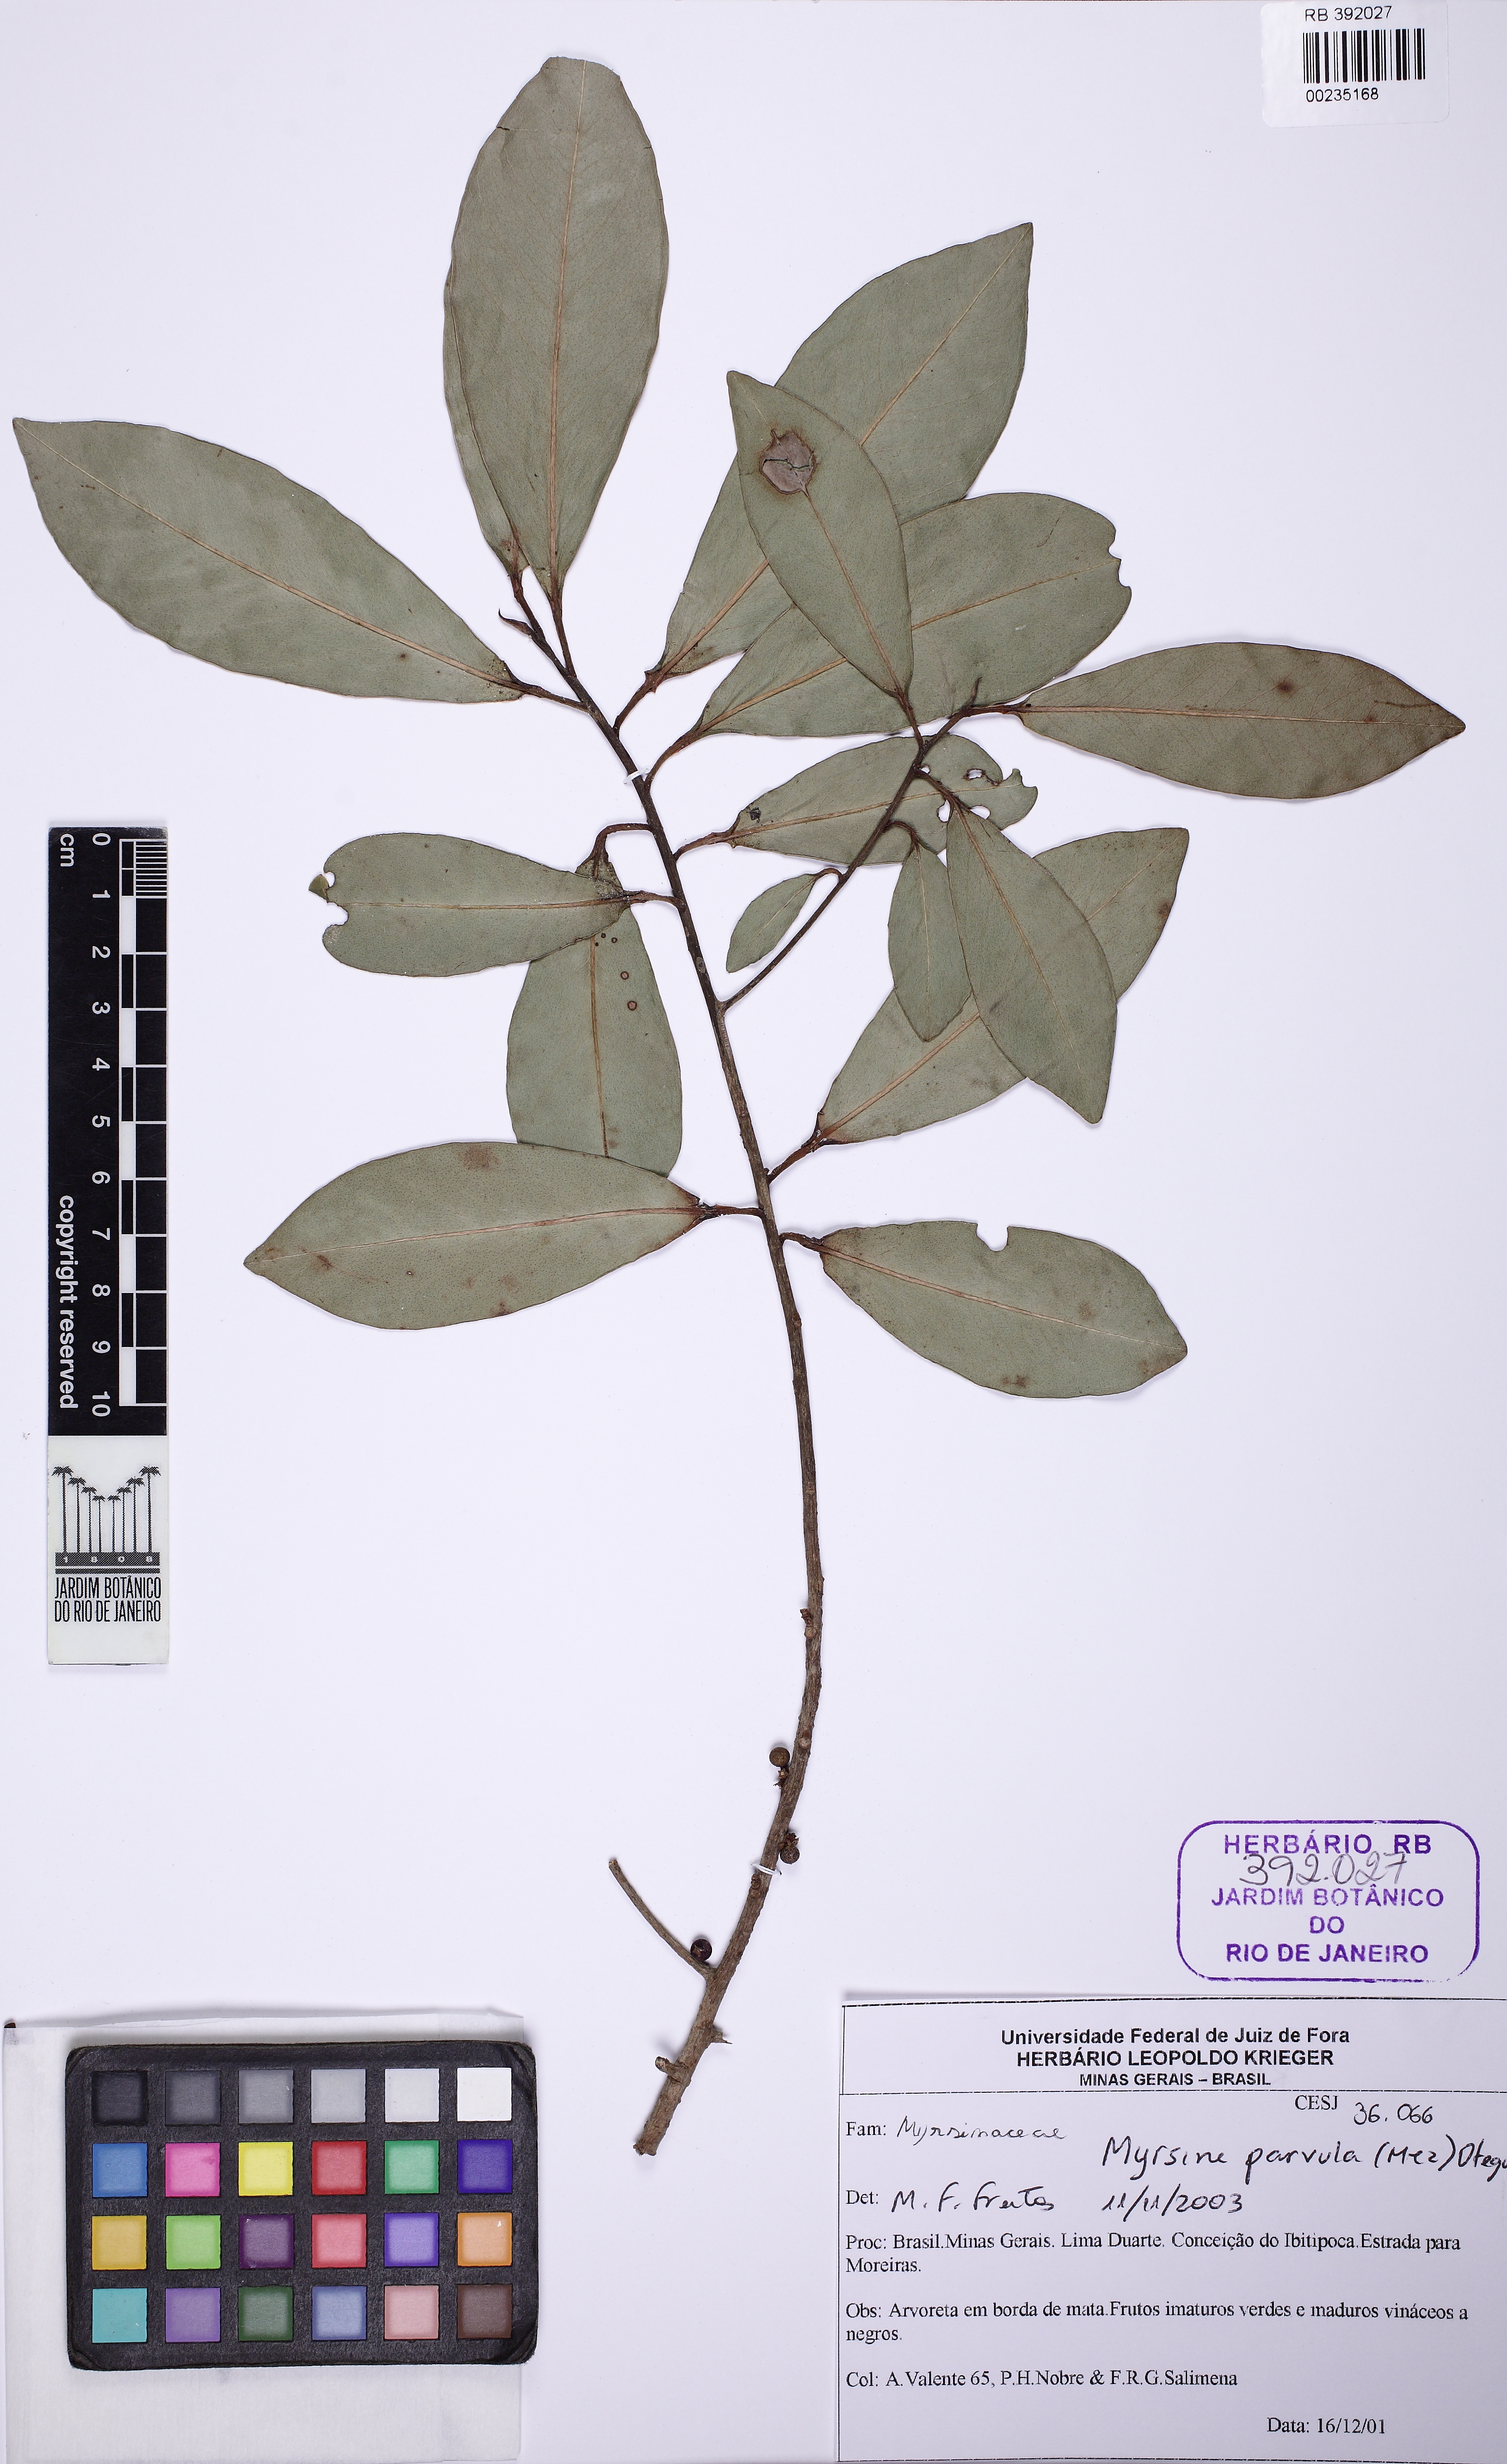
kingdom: Plantae
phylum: Tracheophyta
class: Magnoliopsida
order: Ericales
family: Primulaceae
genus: Myrsine
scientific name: Myrsine lorentziana
